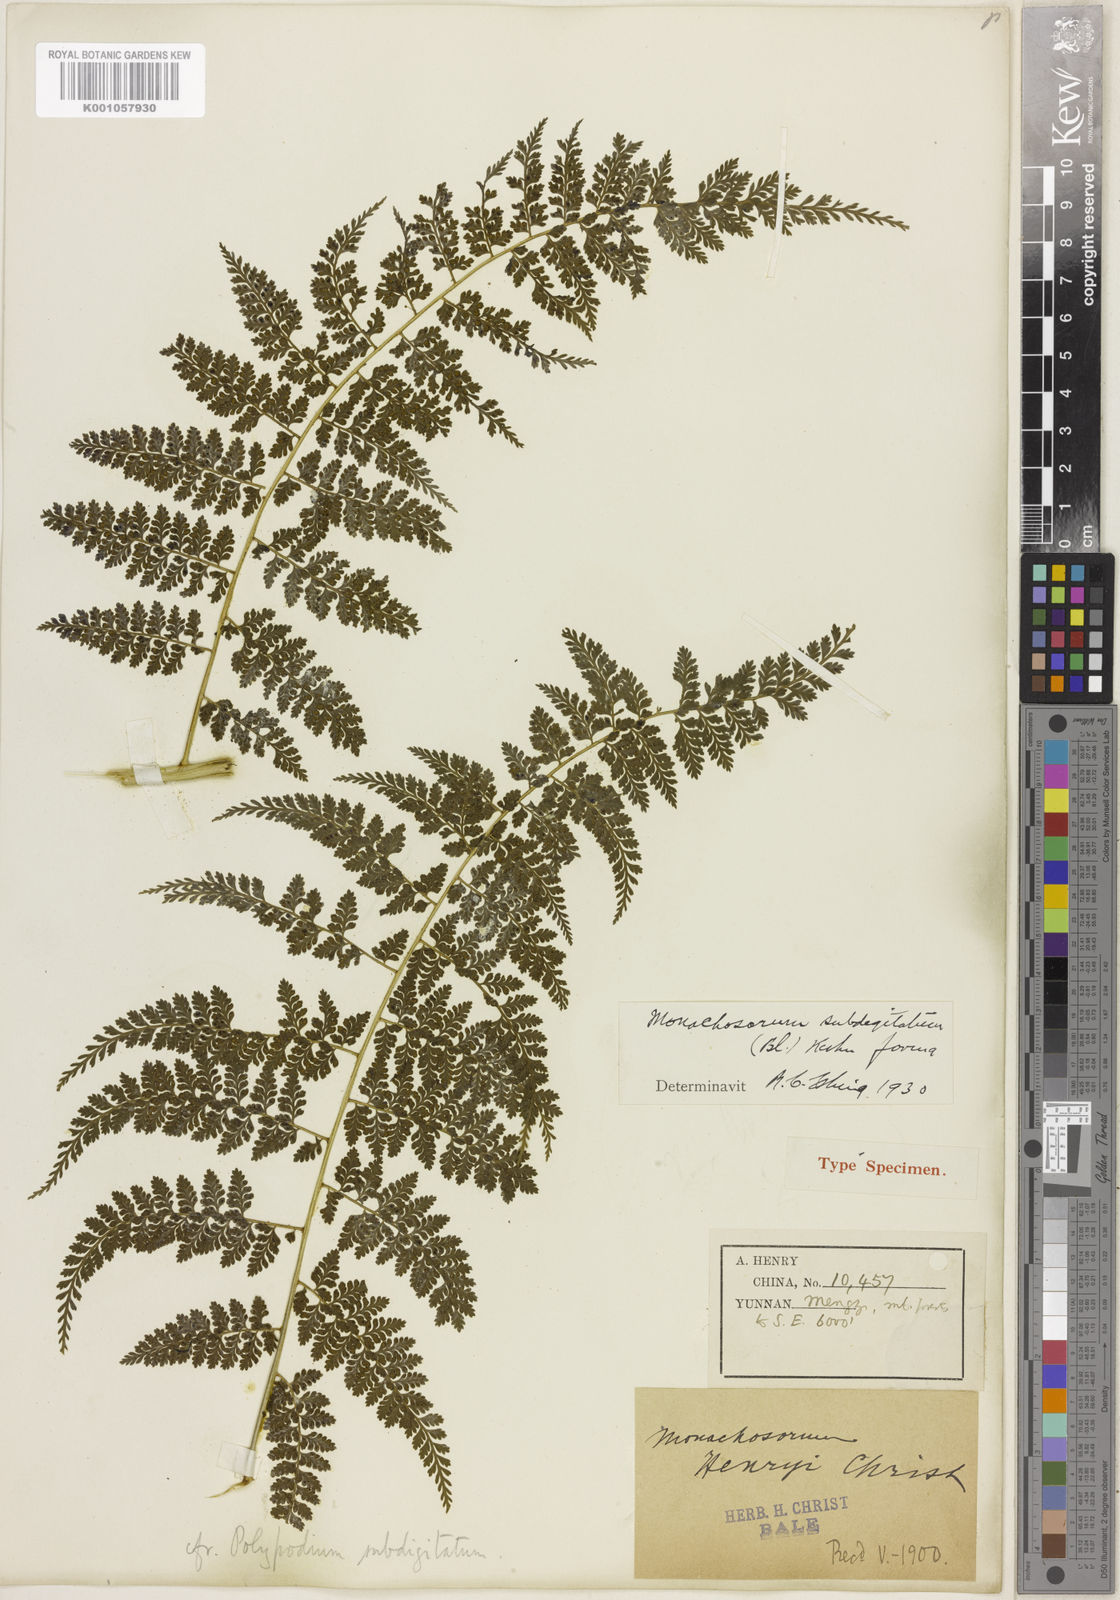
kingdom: Plantae
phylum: Tracheophyta
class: Polypodiopsida
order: Polypodiales
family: Dennstaedtiaceae
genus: Monachosorum
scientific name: Monachosorum subdigitatum
